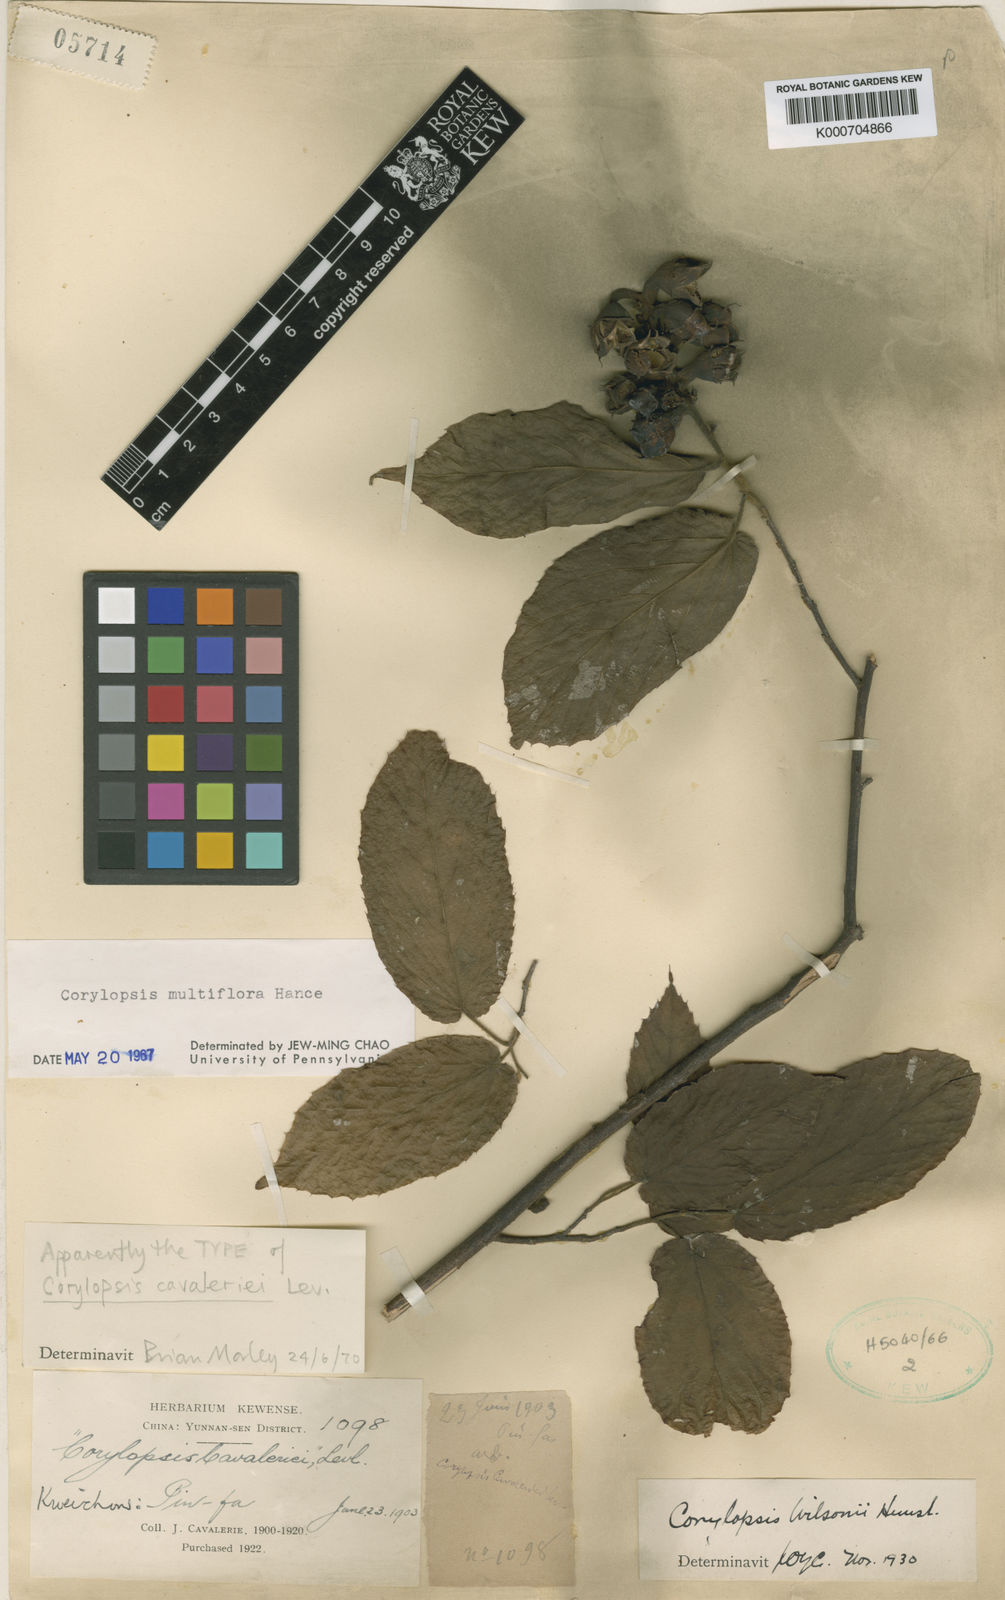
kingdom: Plantae
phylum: Tracheophyta
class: Magnoliopsida
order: Saxifragales
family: Hamamelidaceae
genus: Corylopsis
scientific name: Corylopsis multiflora
